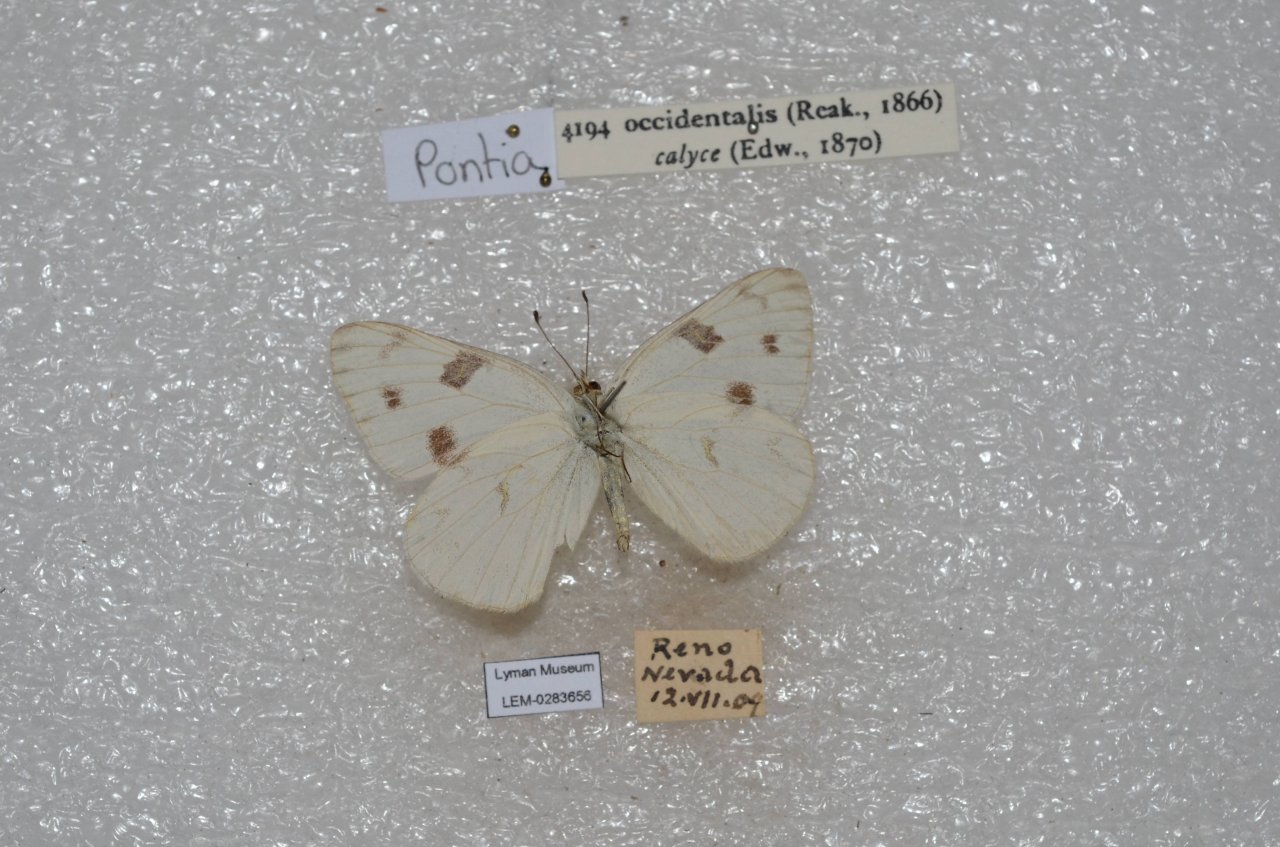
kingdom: Animalia
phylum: Arthropoda
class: Insecta
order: Lepidoptera
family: Pieridae
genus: Pontia
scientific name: Pontia occidentalis
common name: Western White
